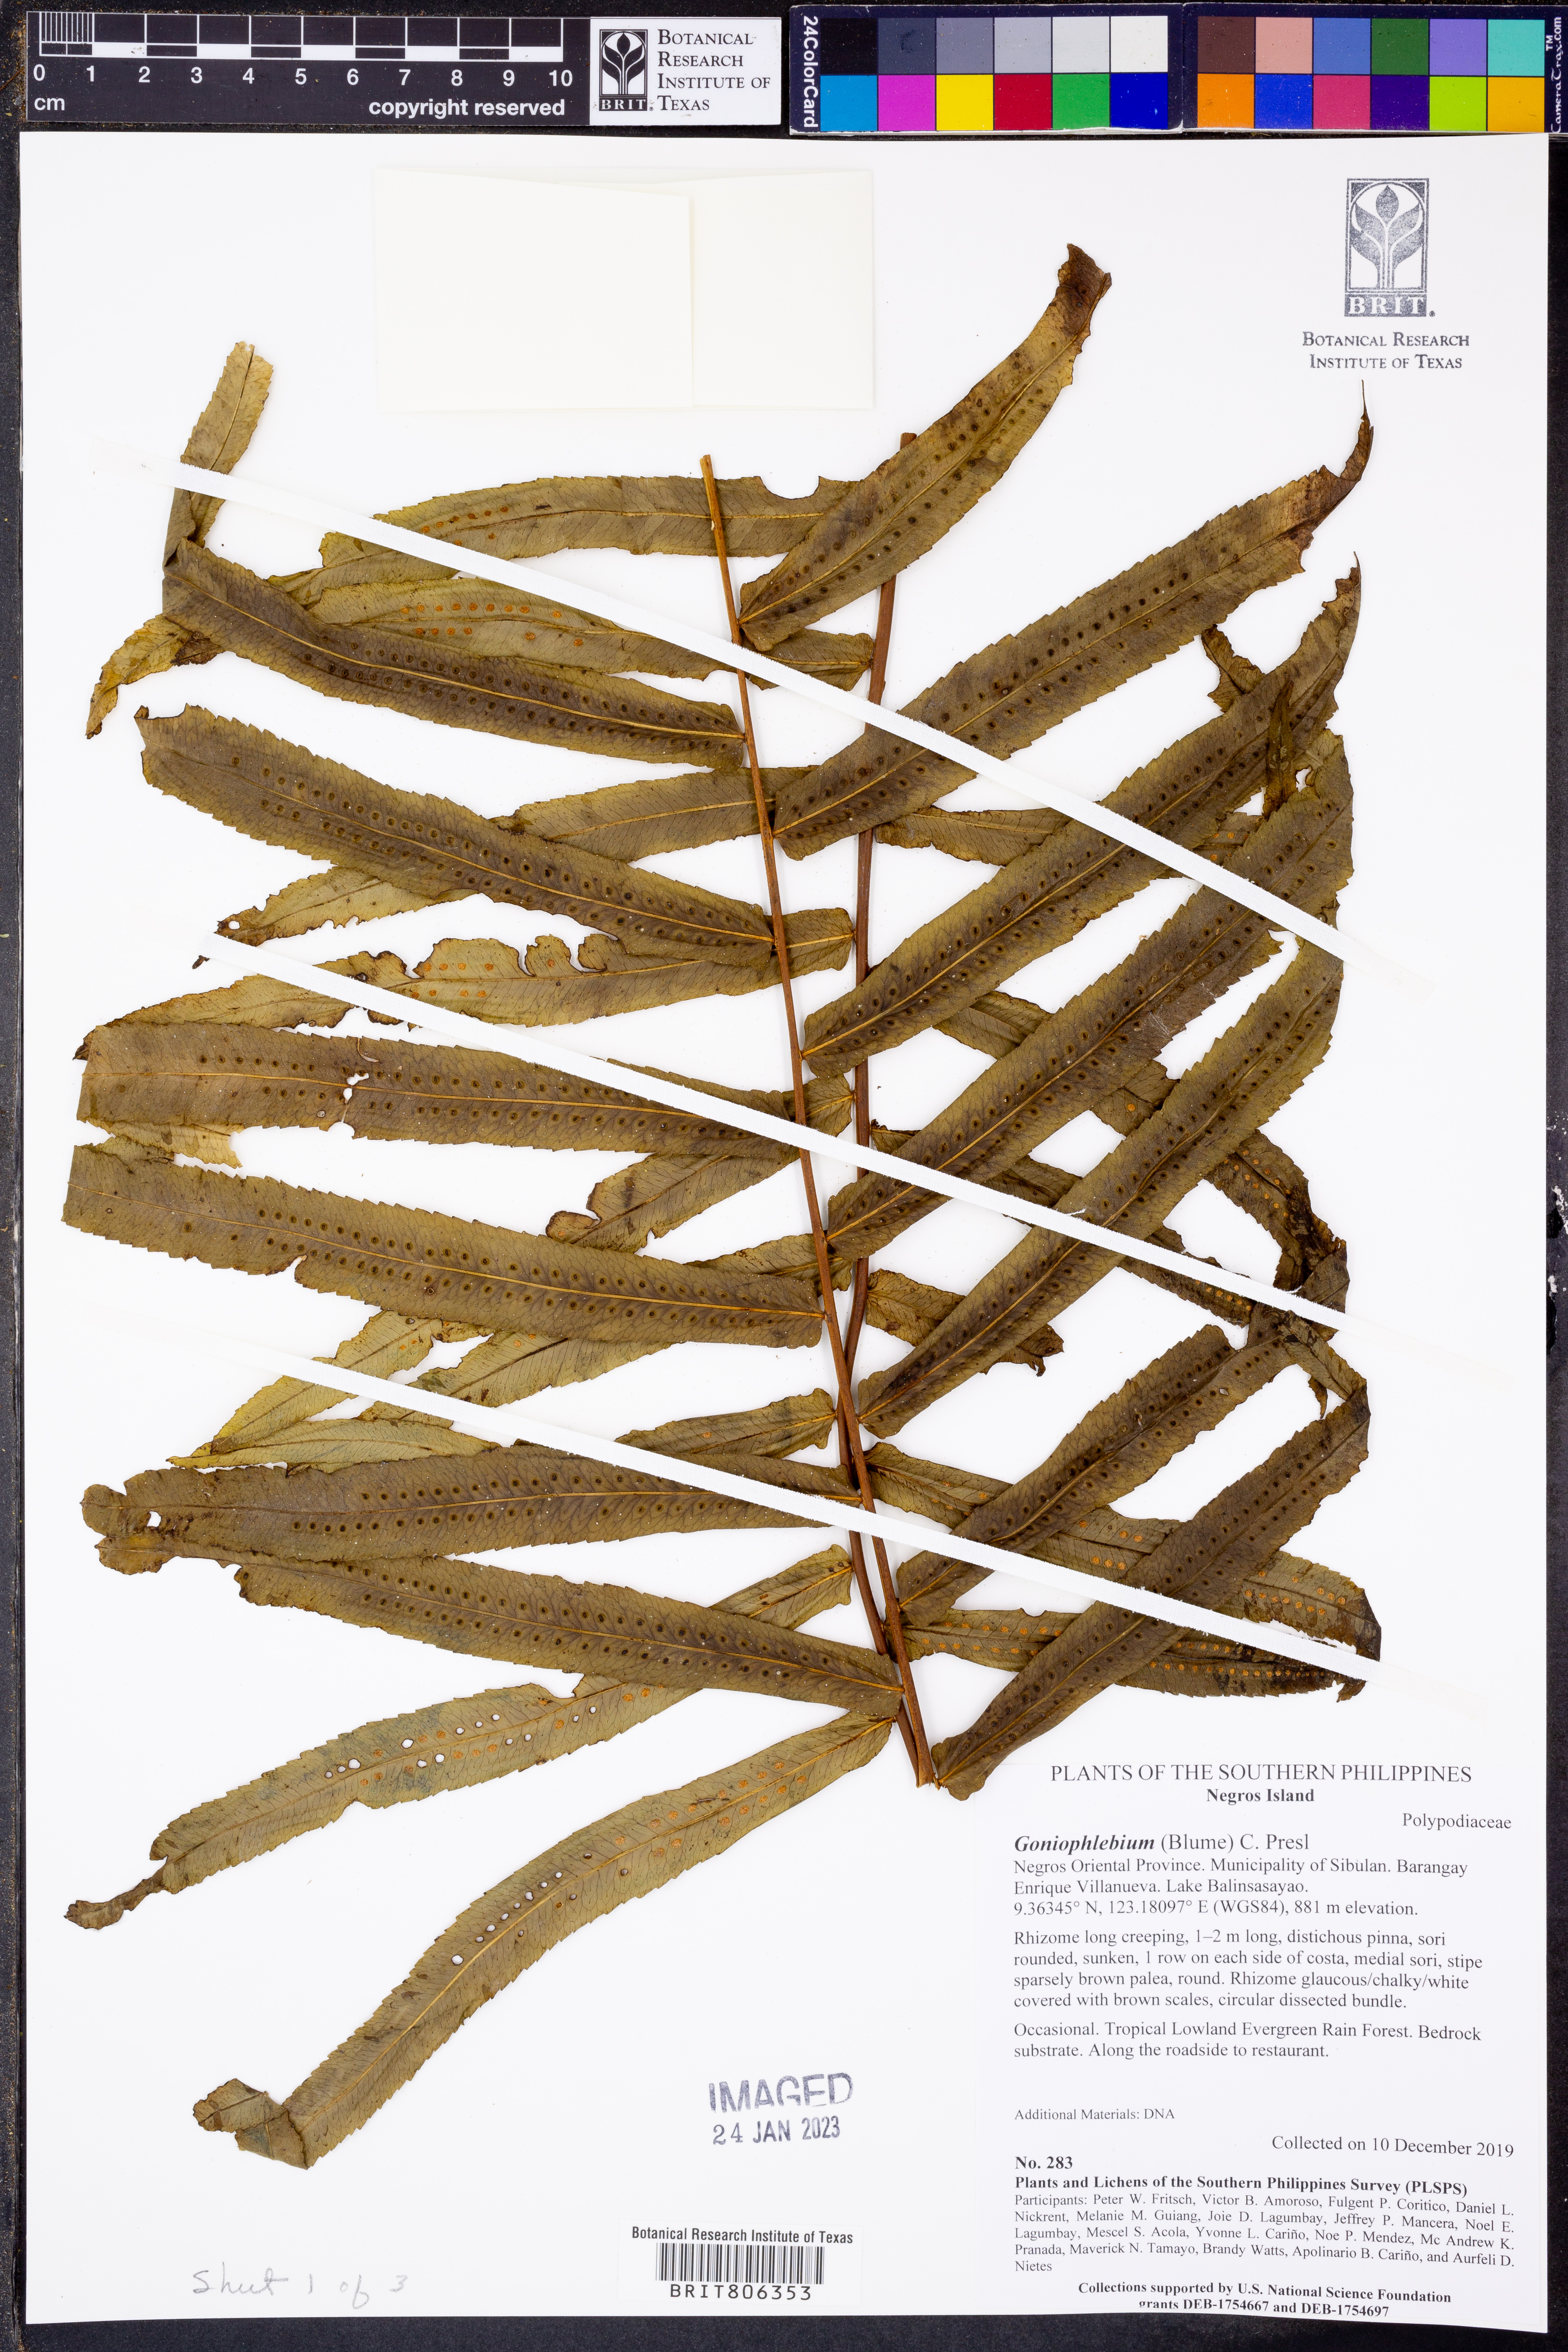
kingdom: Plantae
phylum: Tracheophyta
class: Polypodiopsida
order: Polypodiales
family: Polypodiaceae
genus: Goniophlebium
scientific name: Goniophlebium
